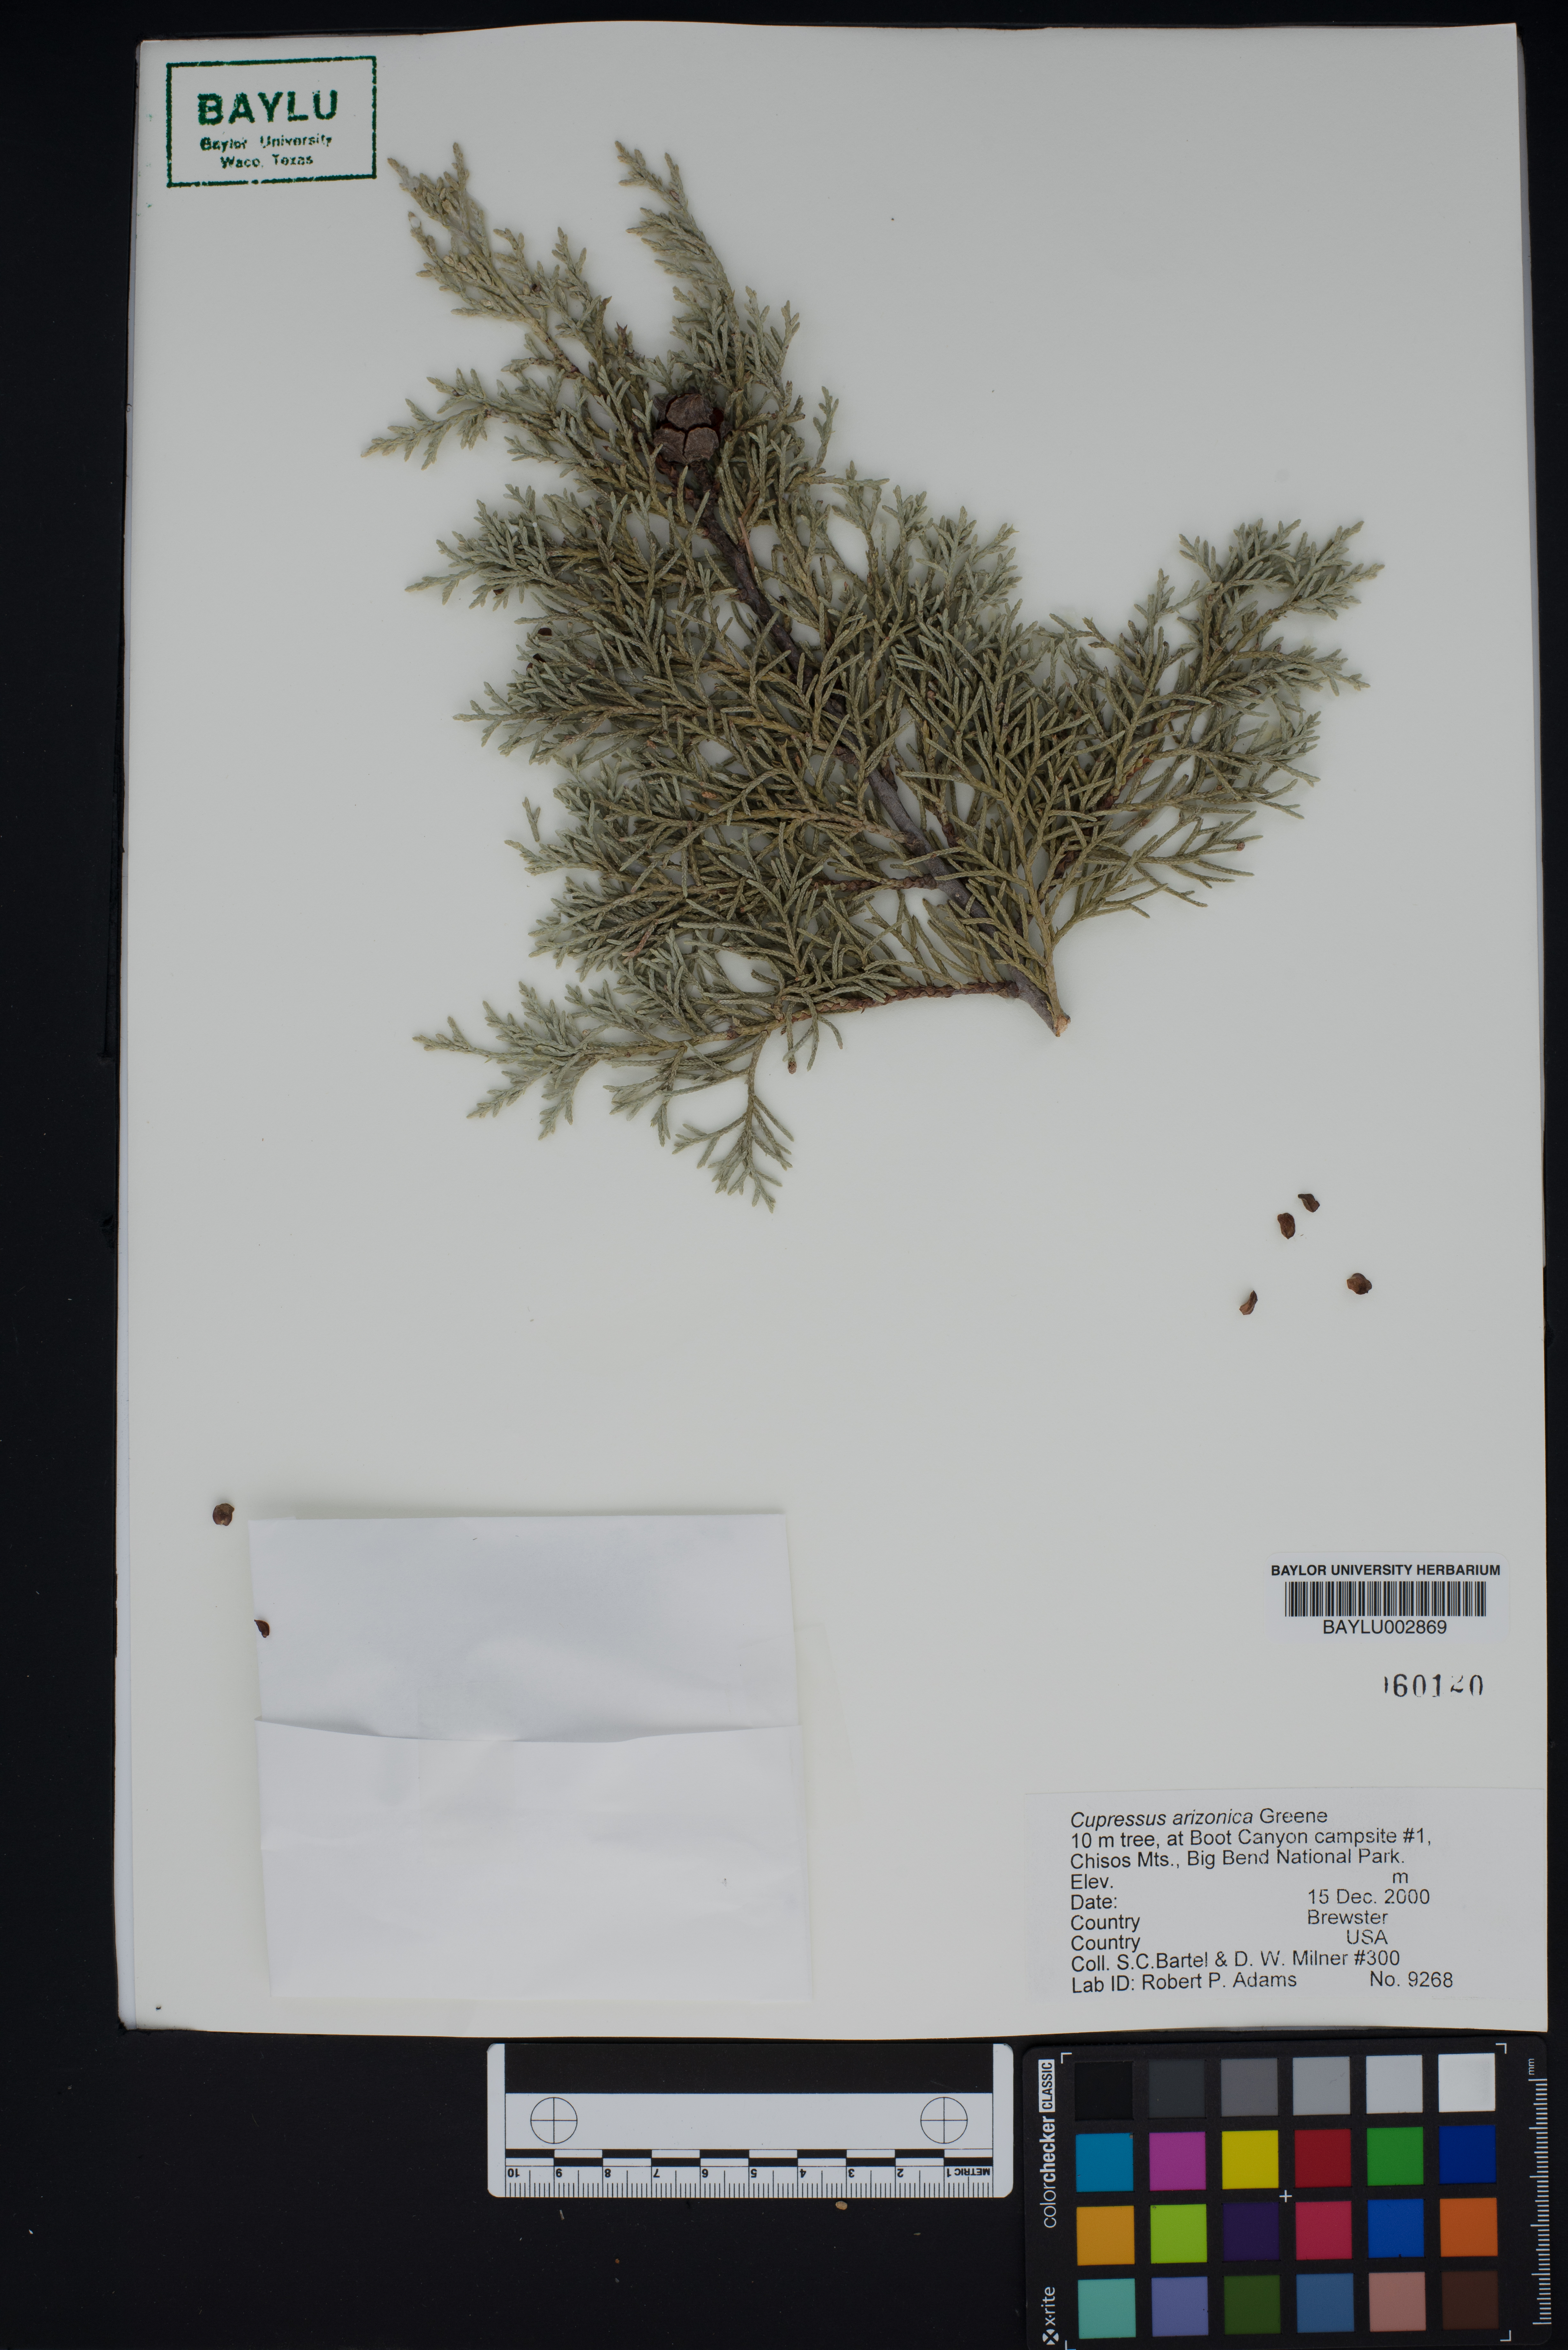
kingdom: Plantae
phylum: Tracheophyta
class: Pinopsida
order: Pinales
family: Cupressaceae
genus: Cupressus
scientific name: Cupressus arizonica
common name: Arizona cypress
